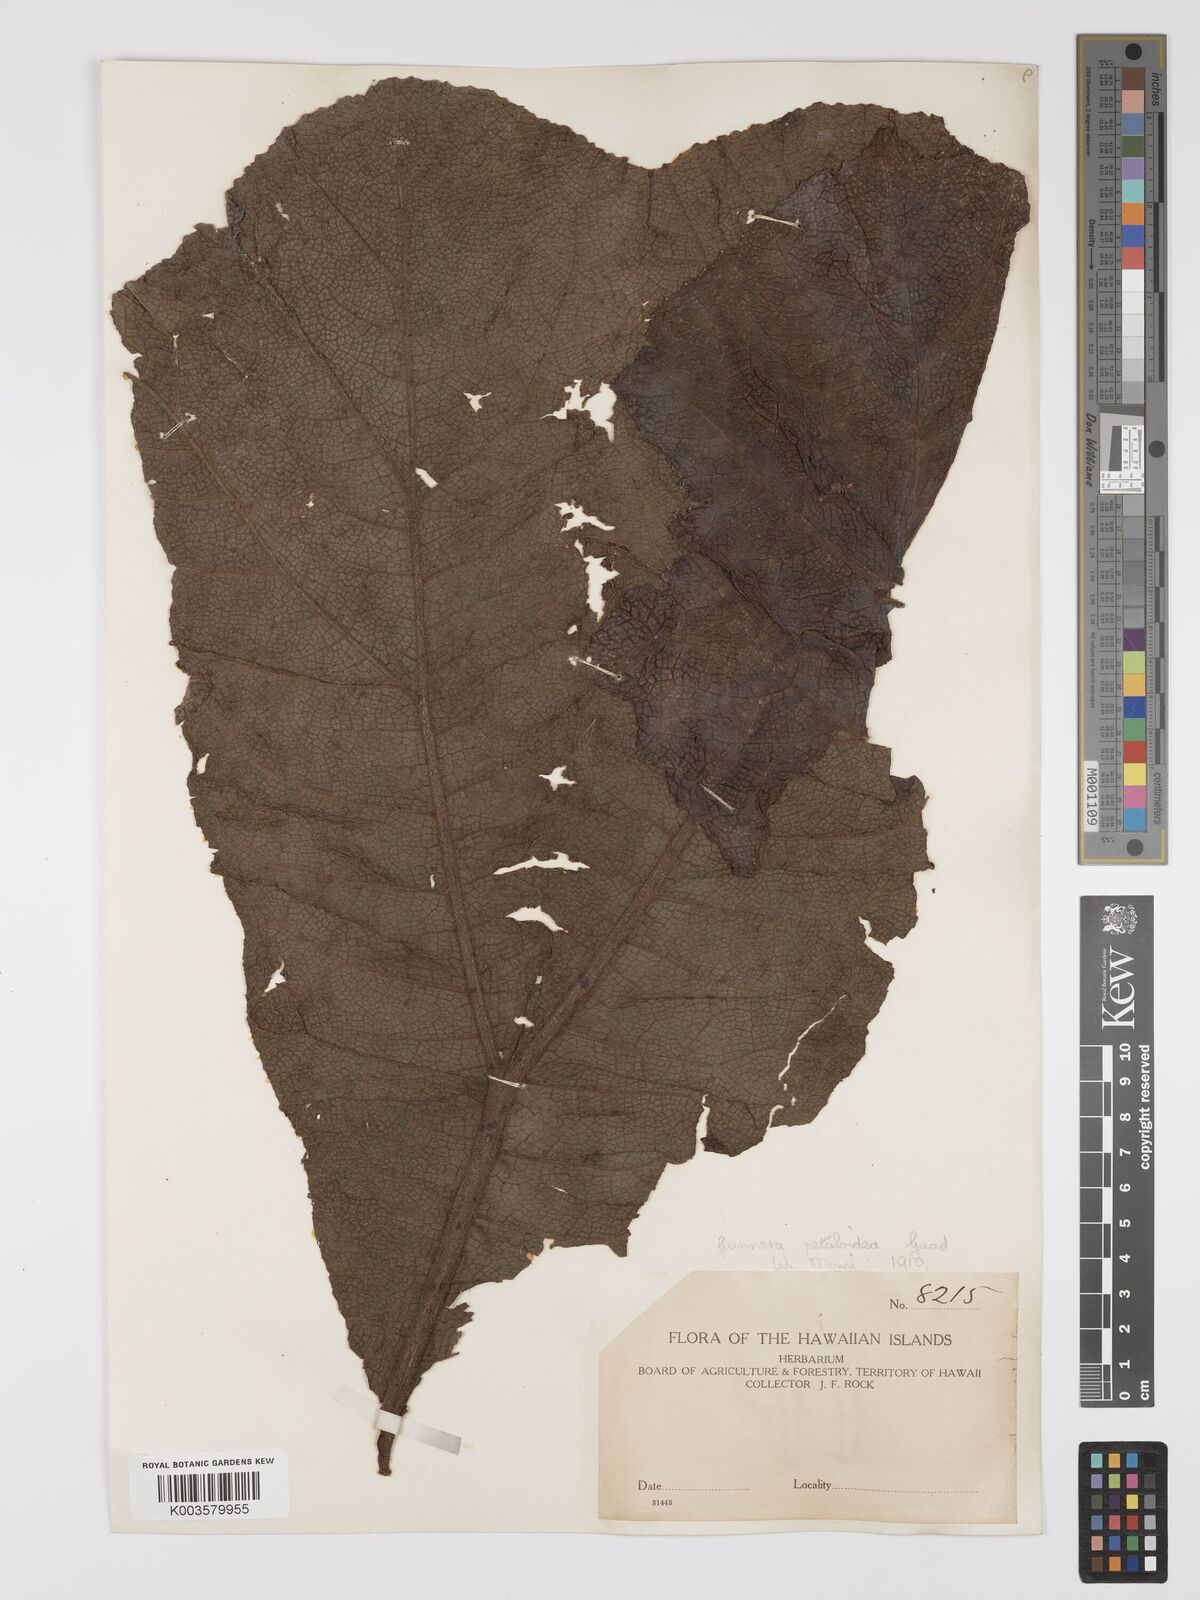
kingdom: Plantae
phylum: Tracheophyta
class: Magnoliopsida
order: Gunnerales
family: Gunneraceae
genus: Gunnera
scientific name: Gunnera petaloidea
